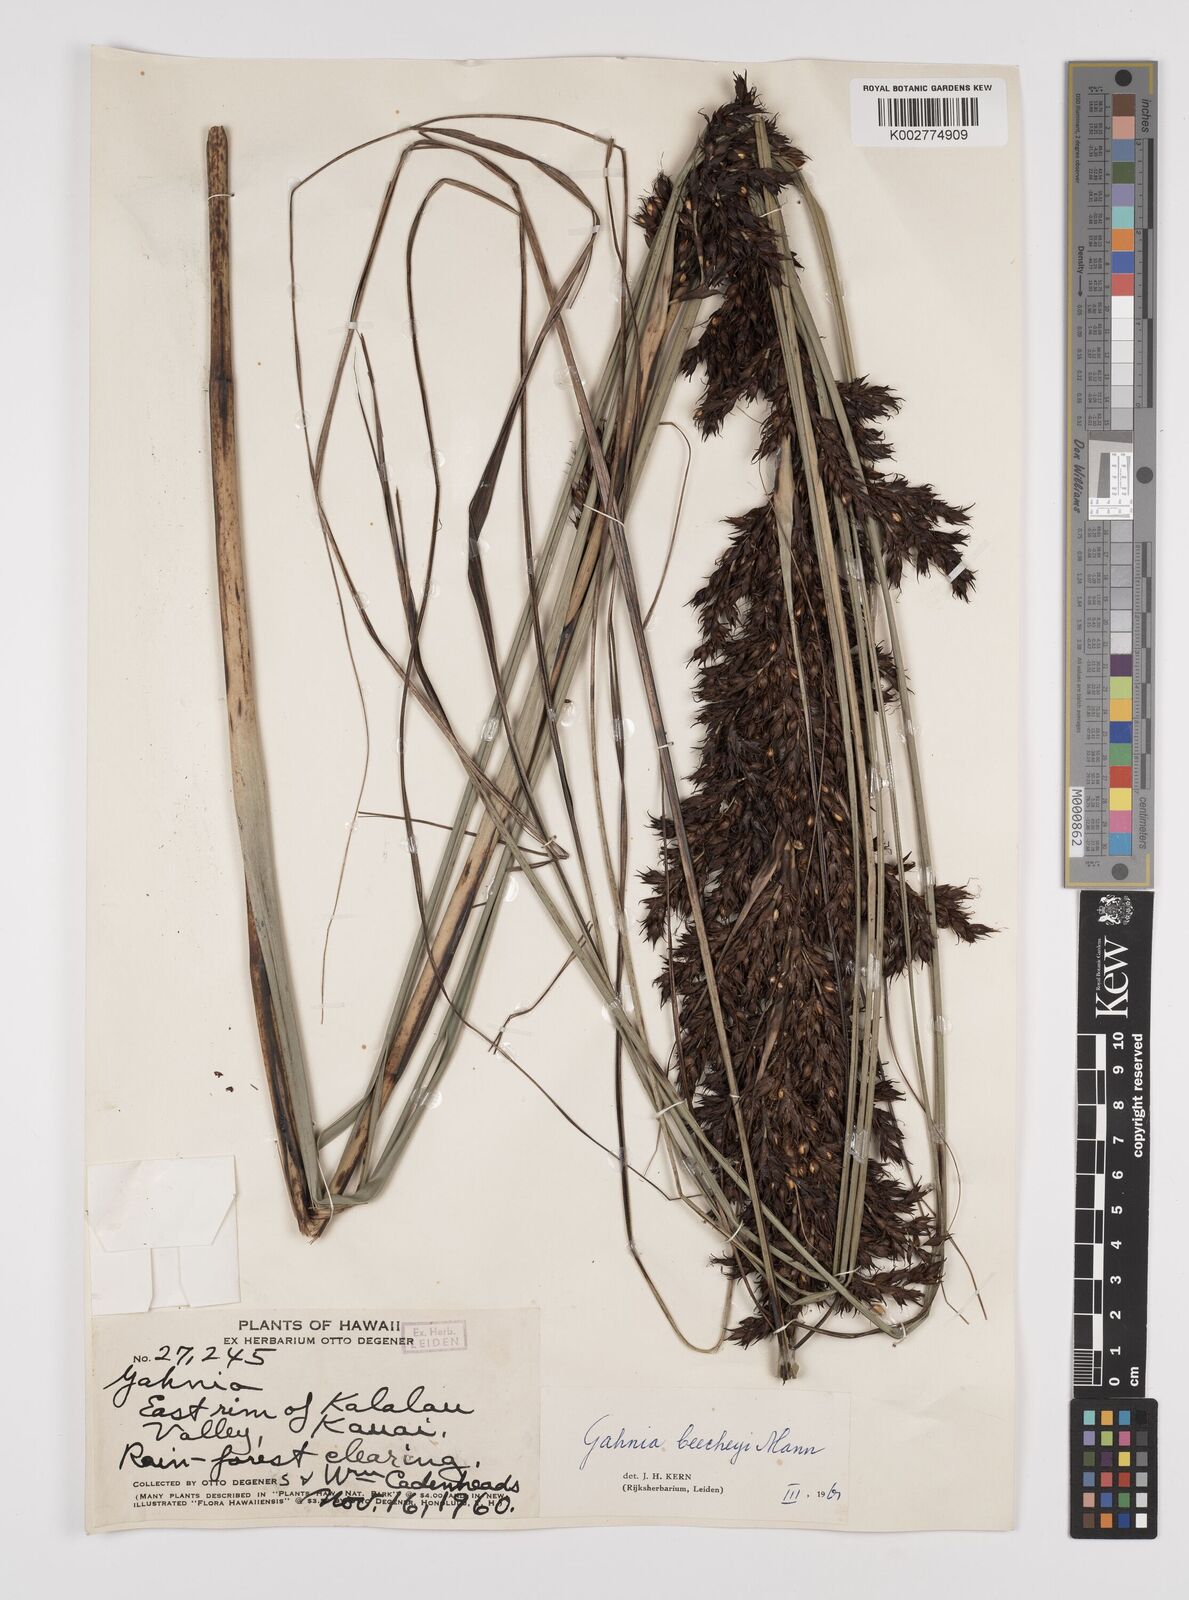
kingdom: Plantae
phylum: Tracheophyta
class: Liliopsida
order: Poales
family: Cyperaceae
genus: Gahnia
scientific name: Gahnia beecheyi
